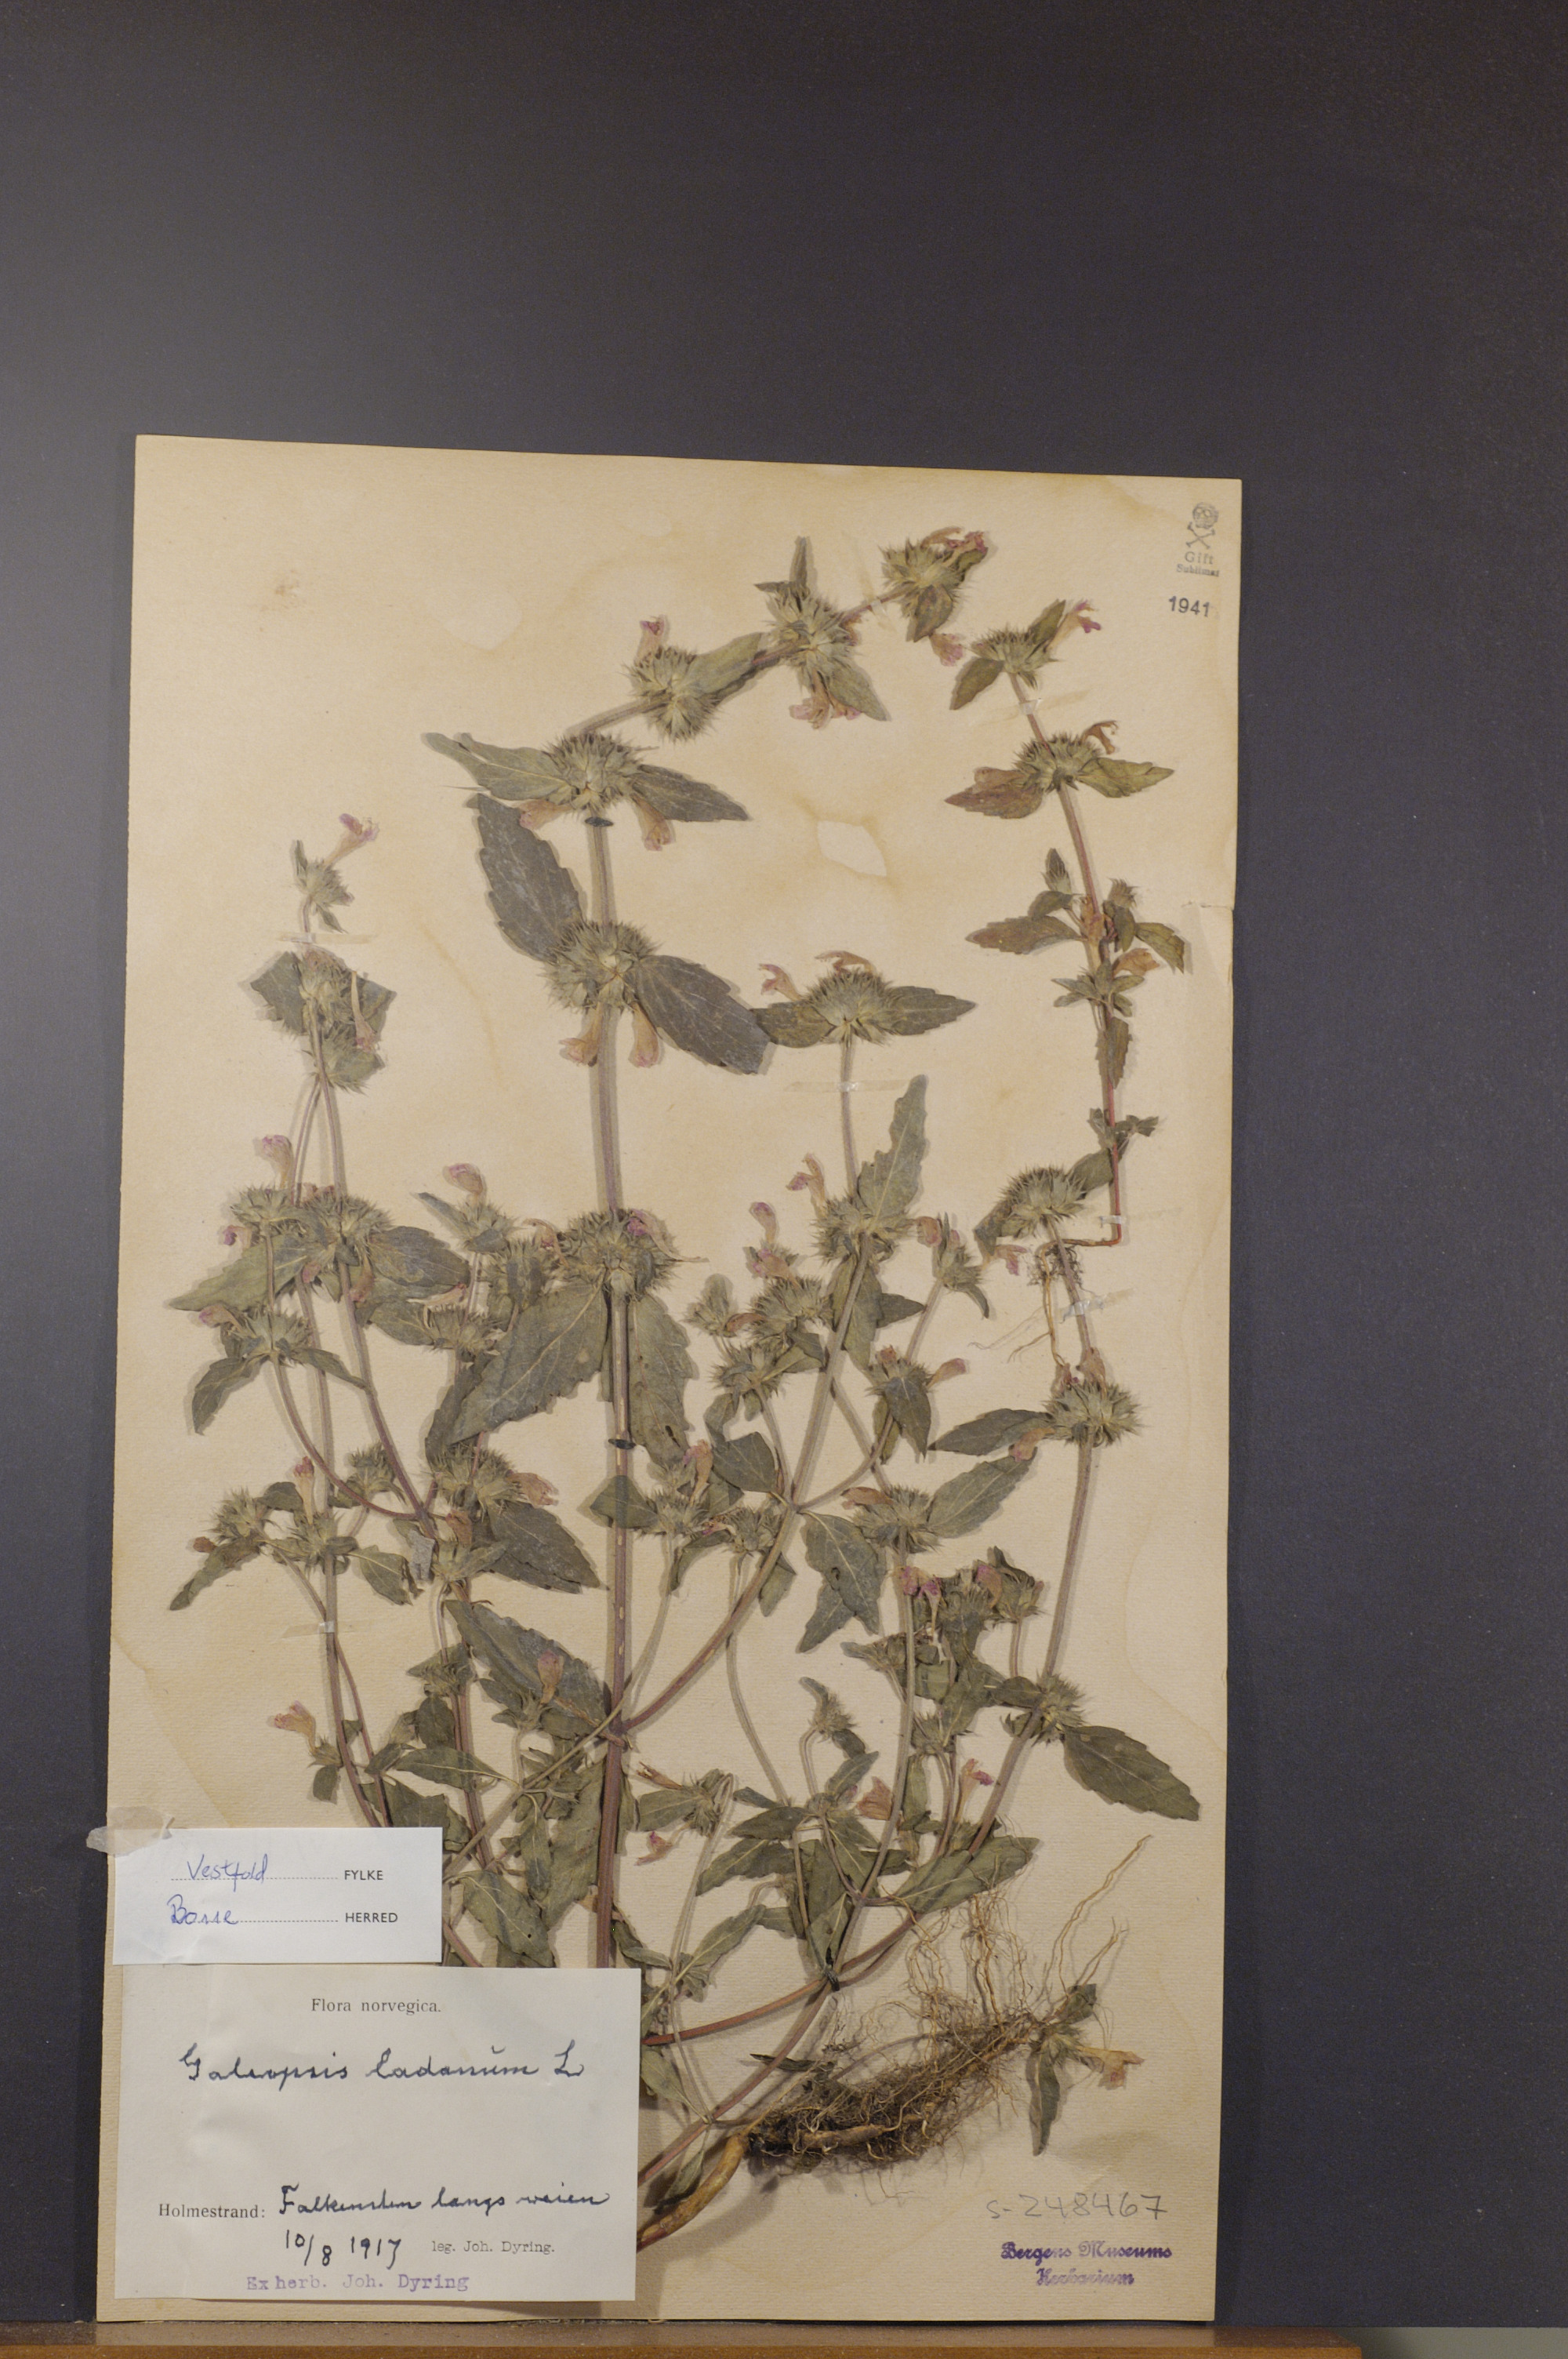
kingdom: Plantae
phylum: Tracheophyta
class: Magnoliopsida
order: Lamiales
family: Lamiaceae
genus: Galeopsis
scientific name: Galeopsis ladanum
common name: Broad-leaved hemp-nettle
